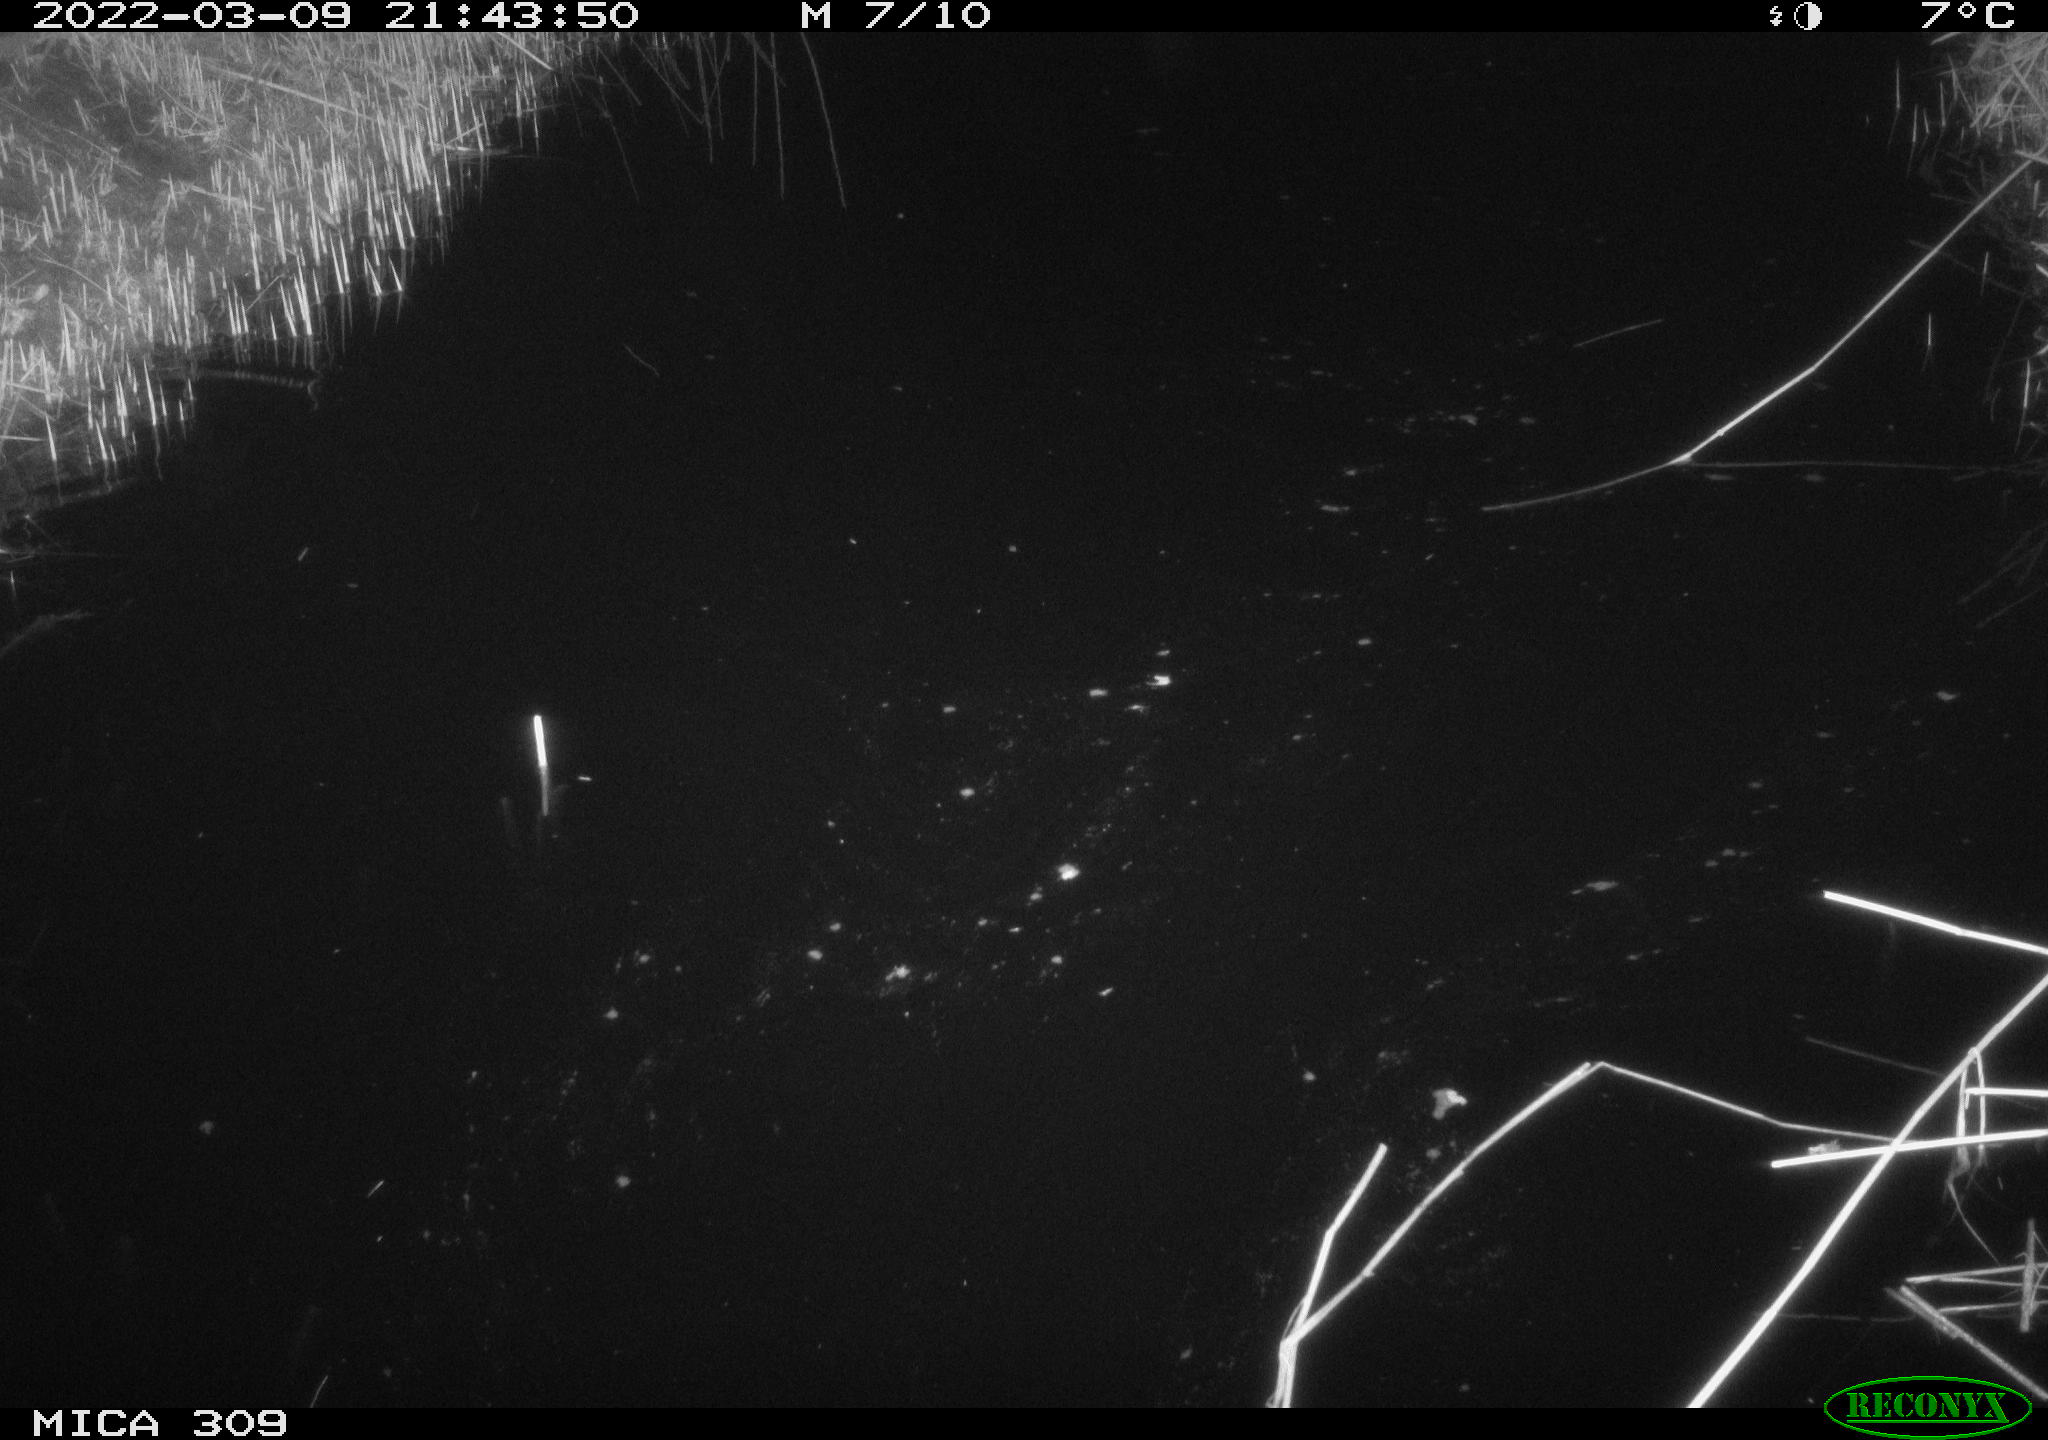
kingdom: Animalia
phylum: Chordata
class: Mammalia
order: Rodentia
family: Muridae
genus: Rattus
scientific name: Rattus norvegicus
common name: Brown rat
